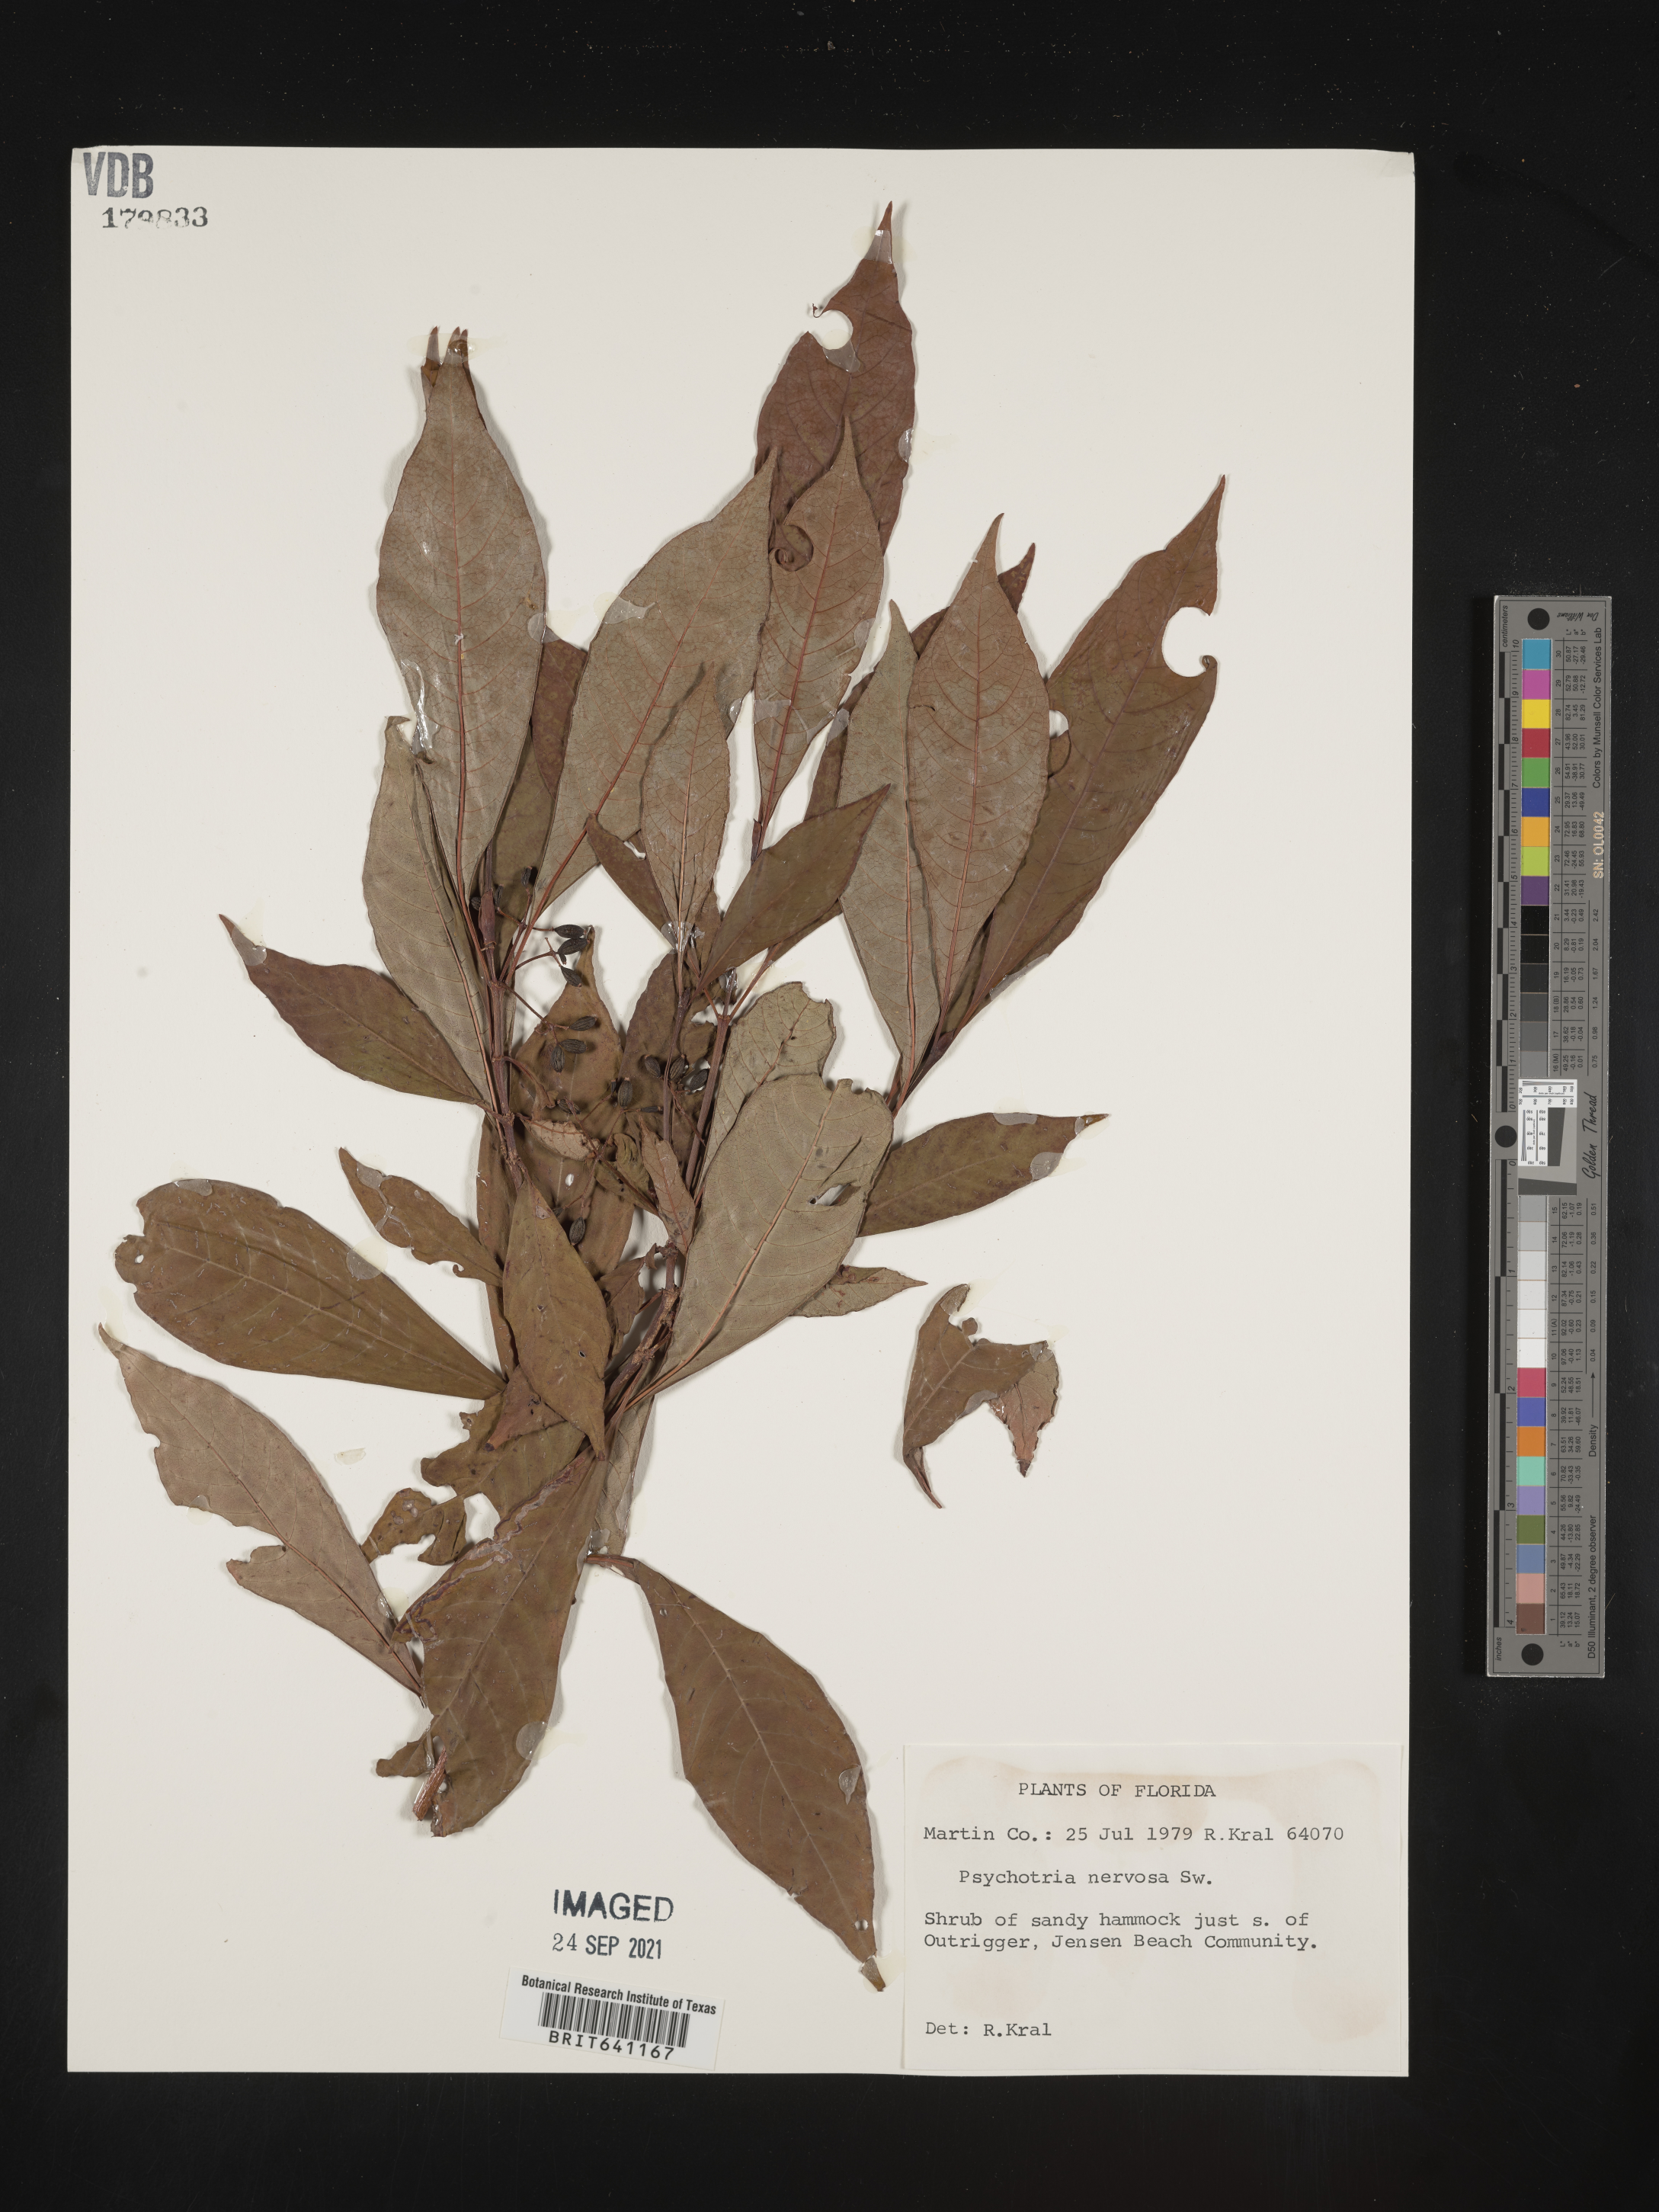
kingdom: Plantae
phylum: Tracheophyta
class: Magnoliopsida
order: Gentianales
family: Rubiaceae
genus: Psychotria
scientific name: Psychotria nervosa
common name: Bastard cankerberry
